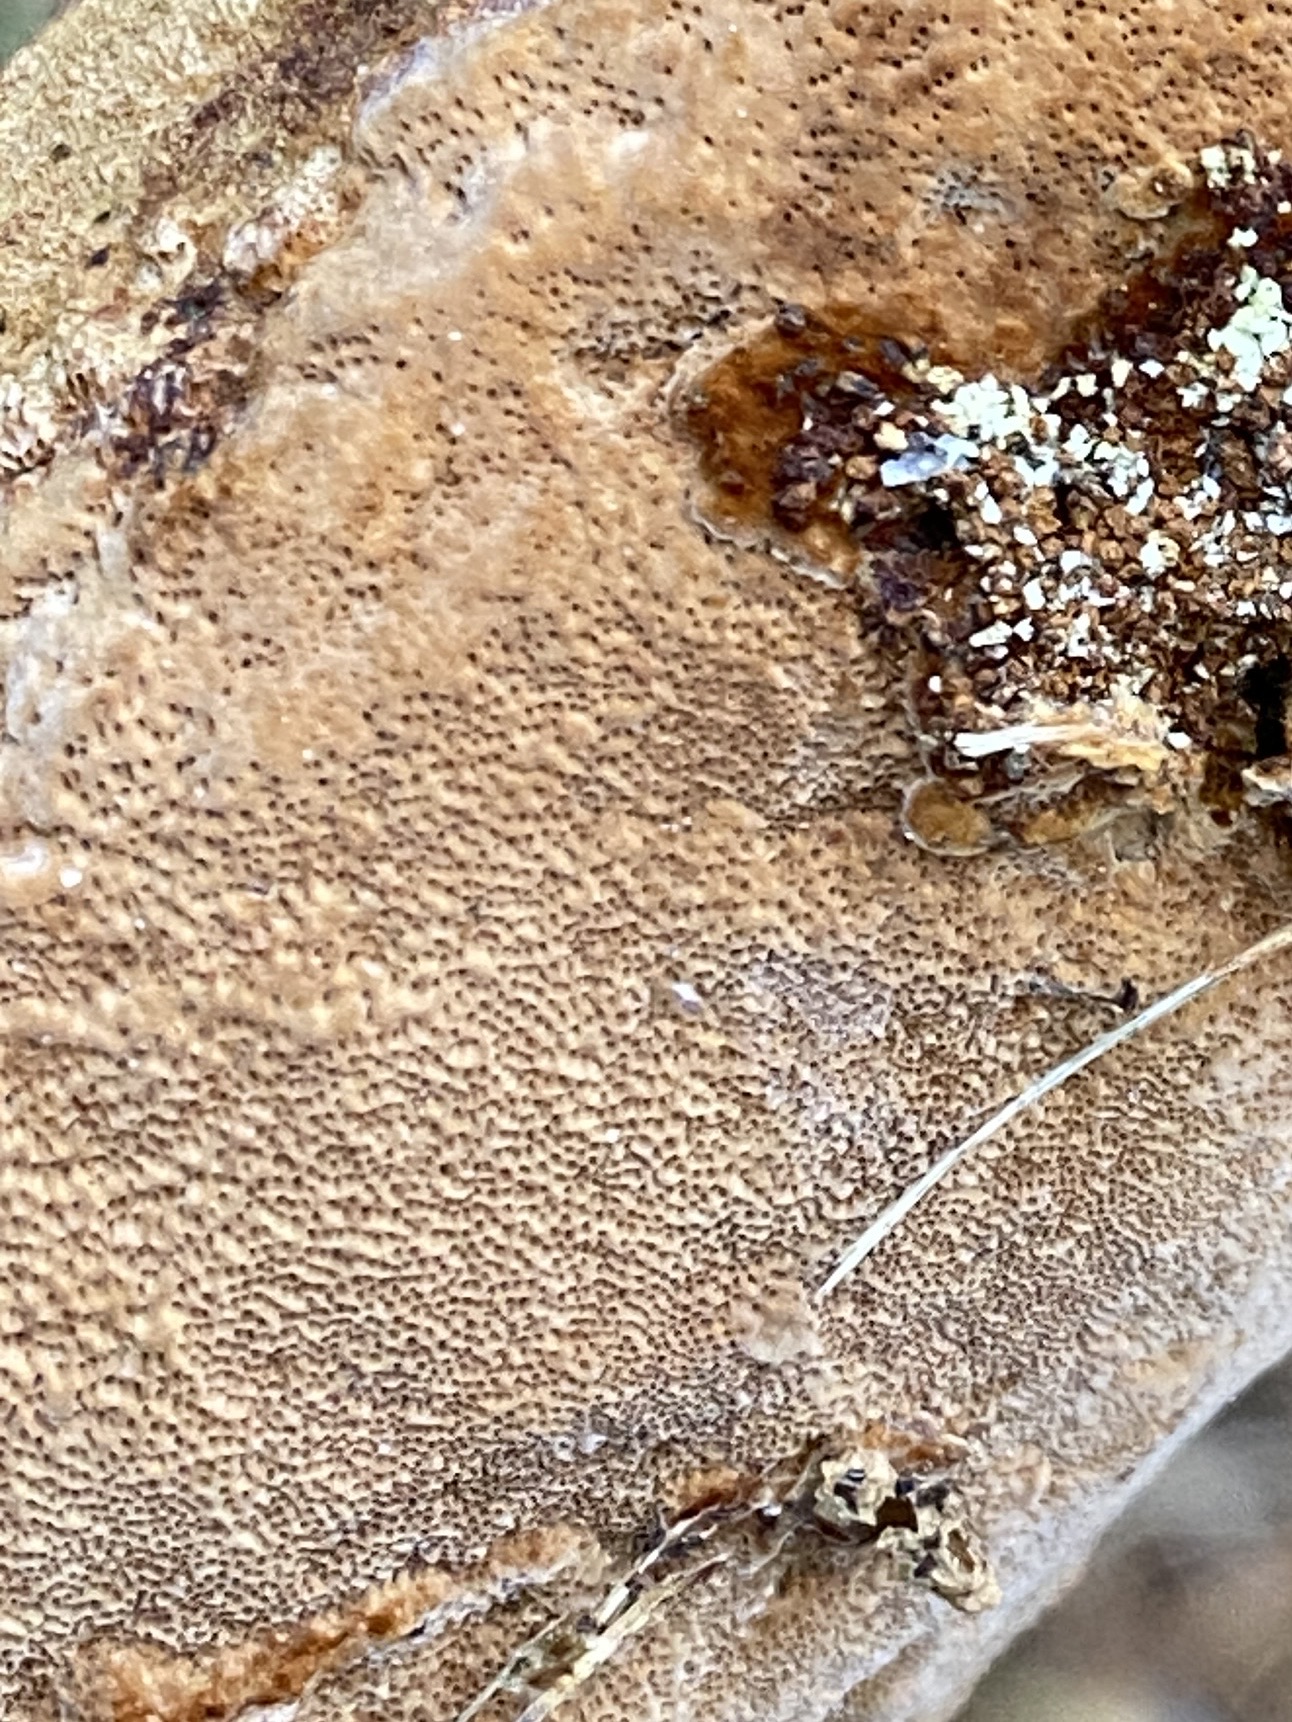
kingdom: Fungi
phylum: Basidiomycota
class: Agaricomycetes
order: Hymenochaetales
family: Hymenochaetaceae
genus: Fuscoporia
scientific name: Fuscoporia ferrea
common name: skorpe-ildporesvamp
